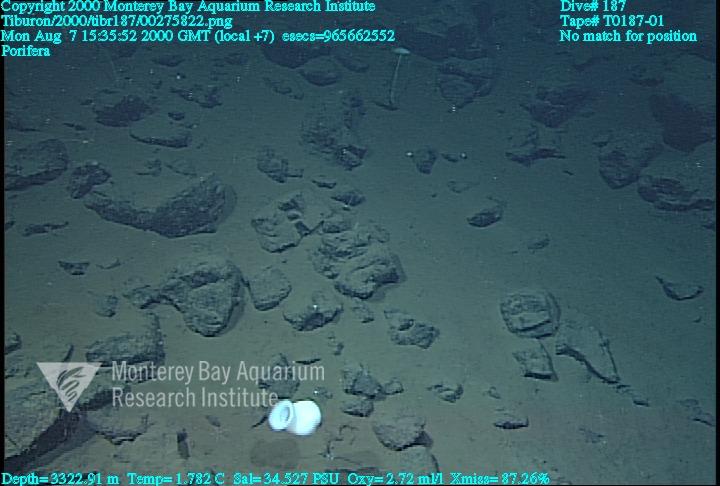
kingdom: Animalia
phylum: Porifera
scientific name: Porifera
